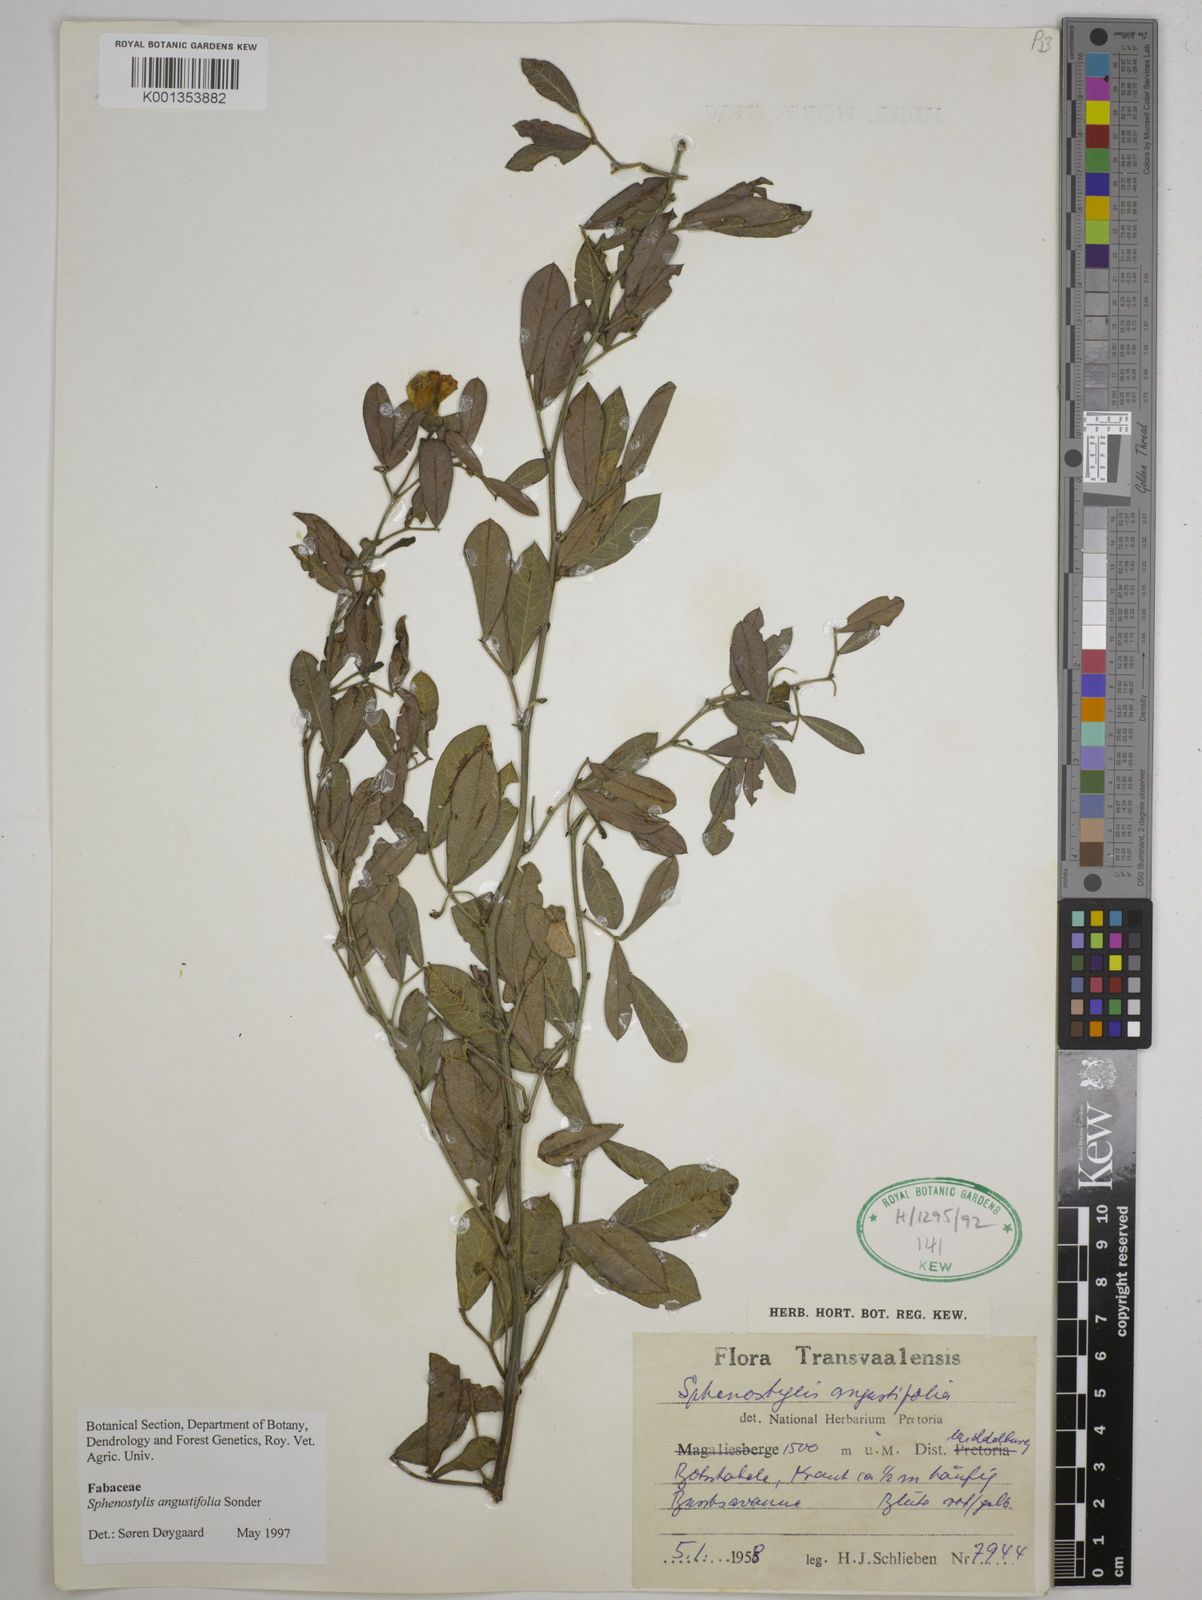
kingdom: Plantae
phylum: Tracheophyta
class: Magnoliopsida
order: Fabales
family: Fabaceae
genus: Sphenostylis
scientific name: Sphenostylis angustifolia
